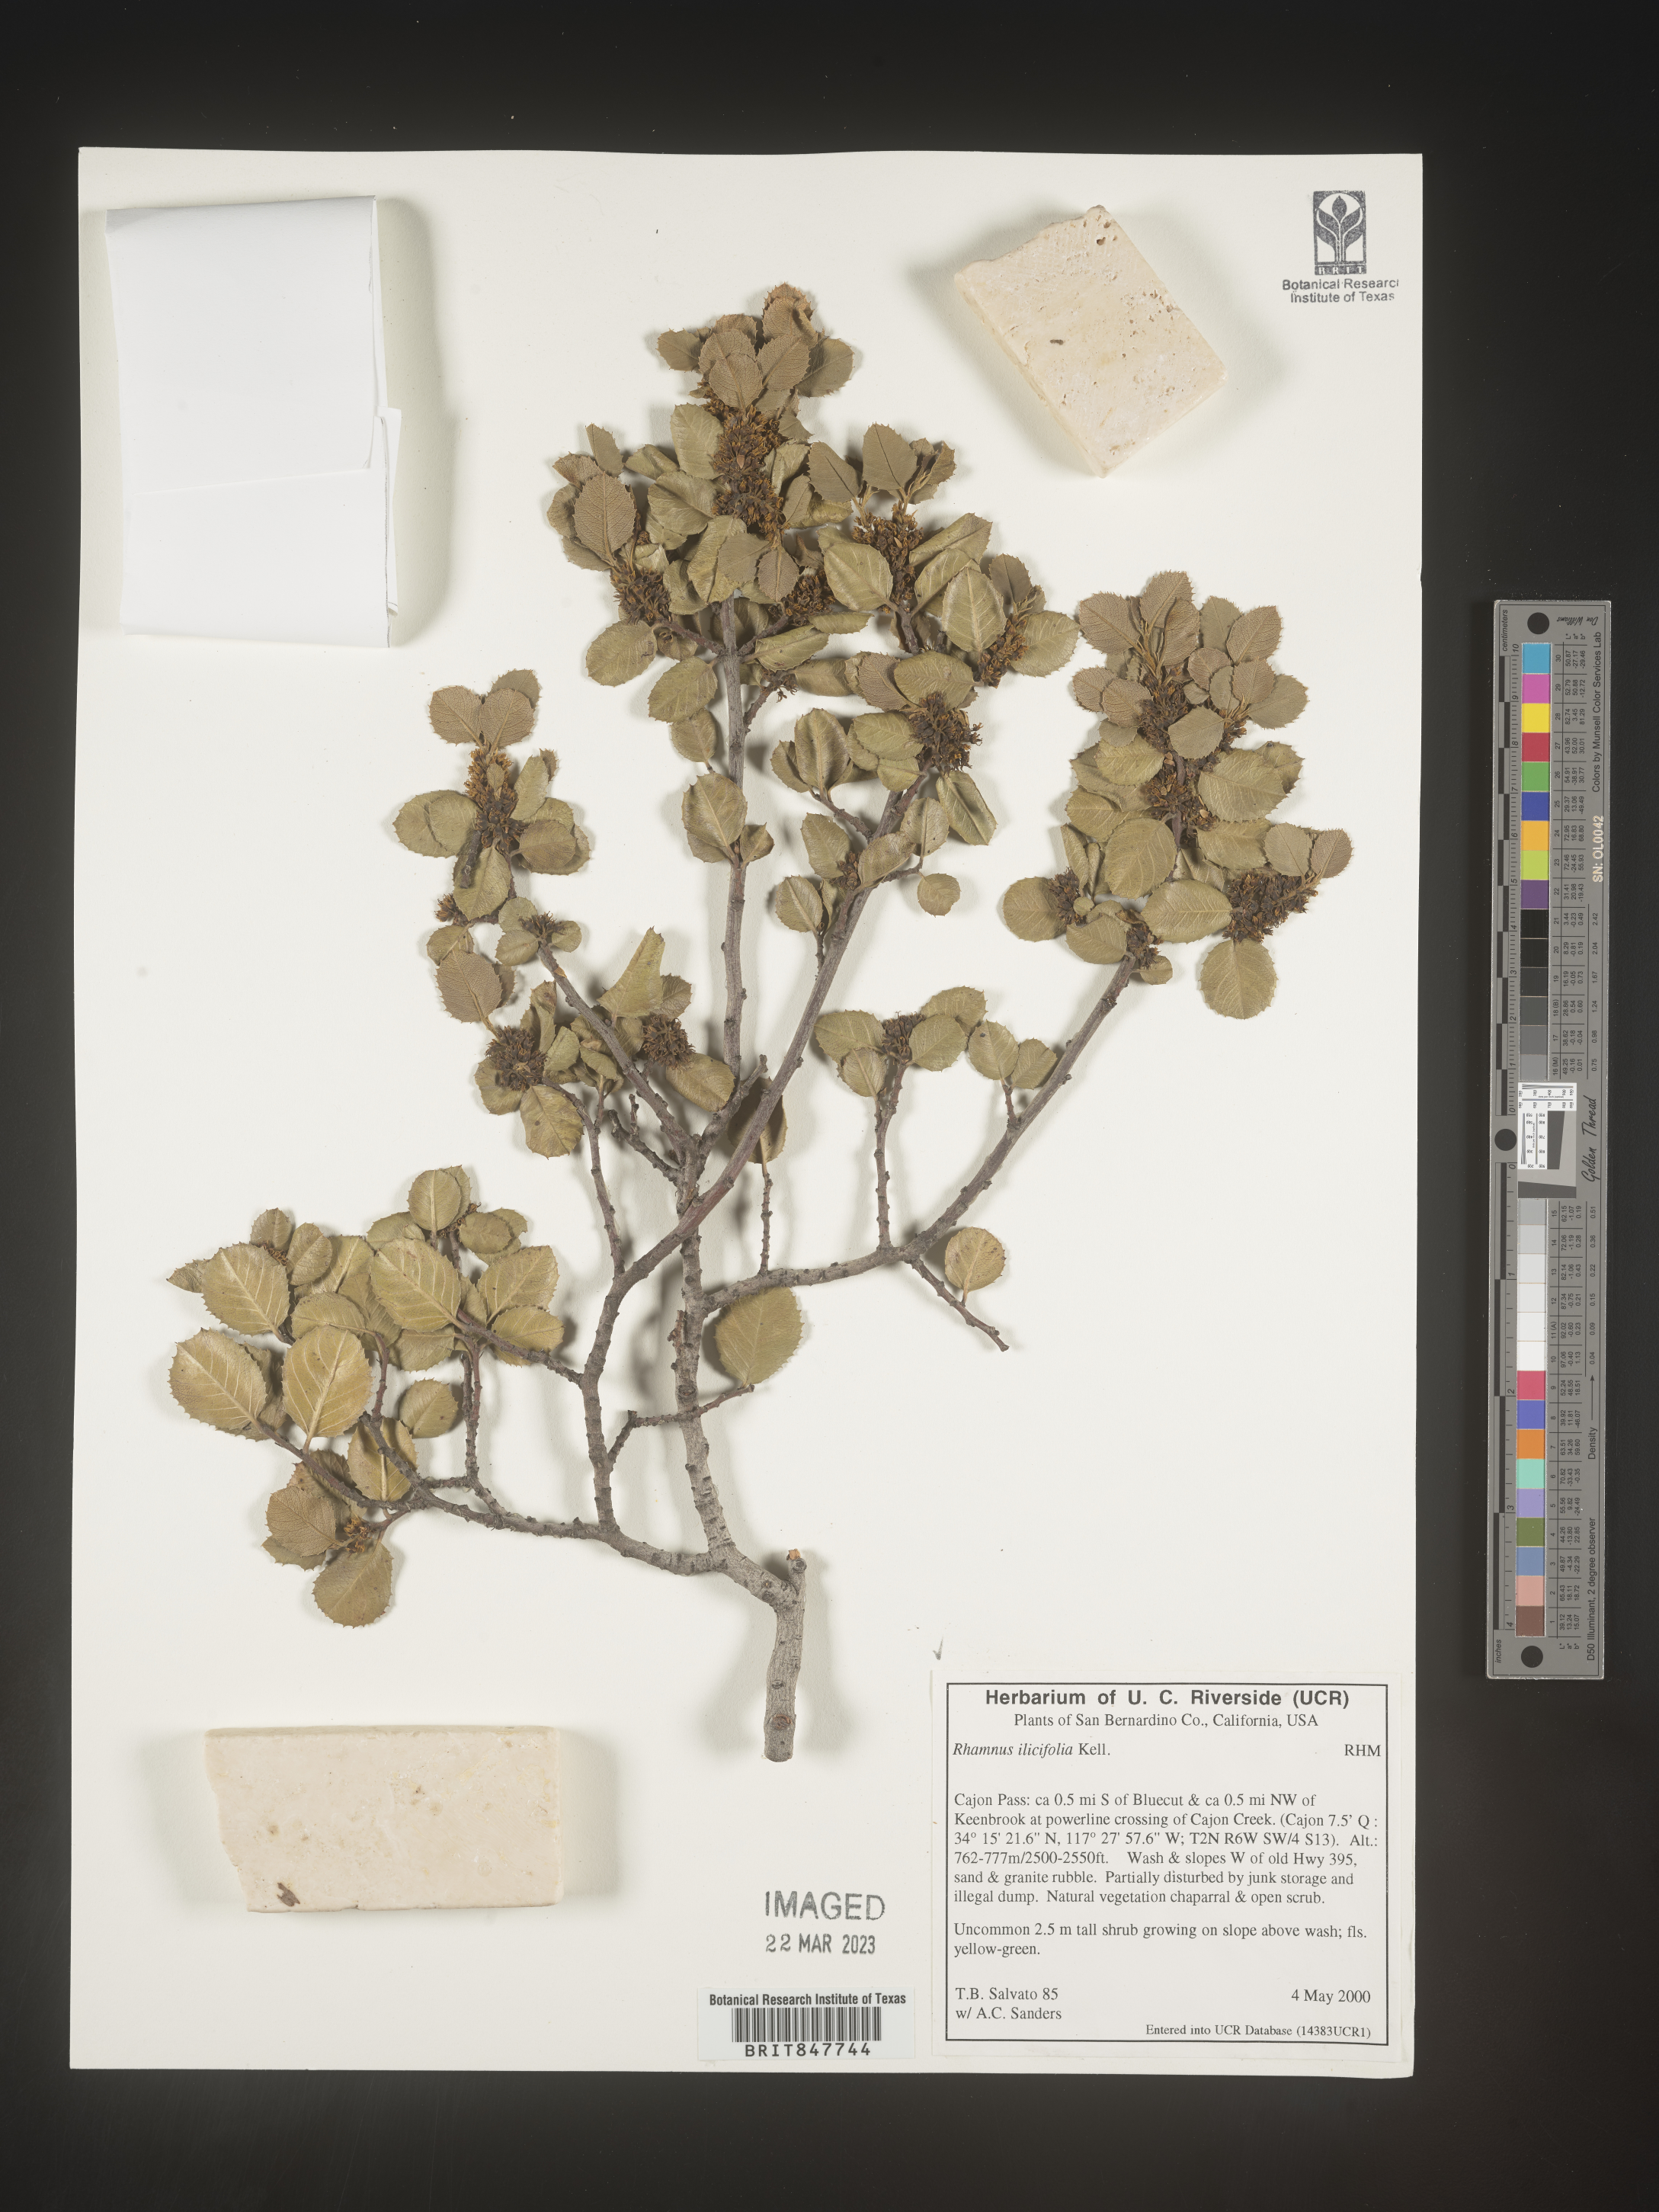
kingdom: Plantae
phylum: Tracheophyta
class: Magnoliopsida
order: Rosales
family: Rhamnaceae
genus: Endotropis
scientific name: Endotropis crocea
